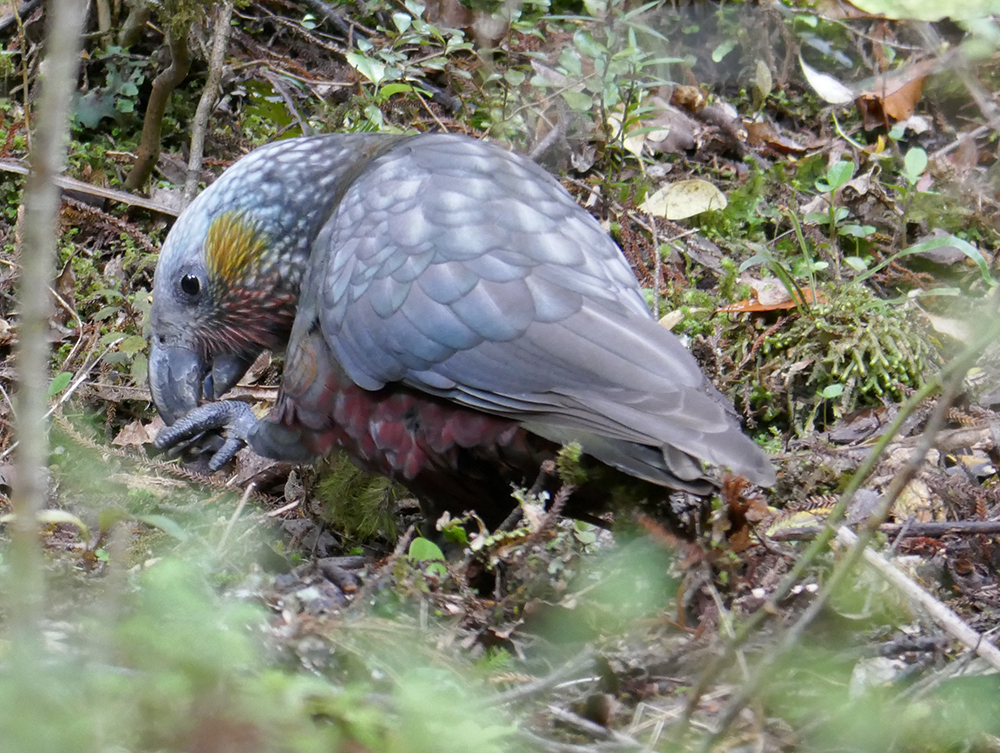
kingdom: Animalia
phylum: Chordata
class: Aves
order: Psittaciformes
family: Psittacidae
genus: Nestor
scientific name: Nestor meridionalis
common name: New zealand kaka
